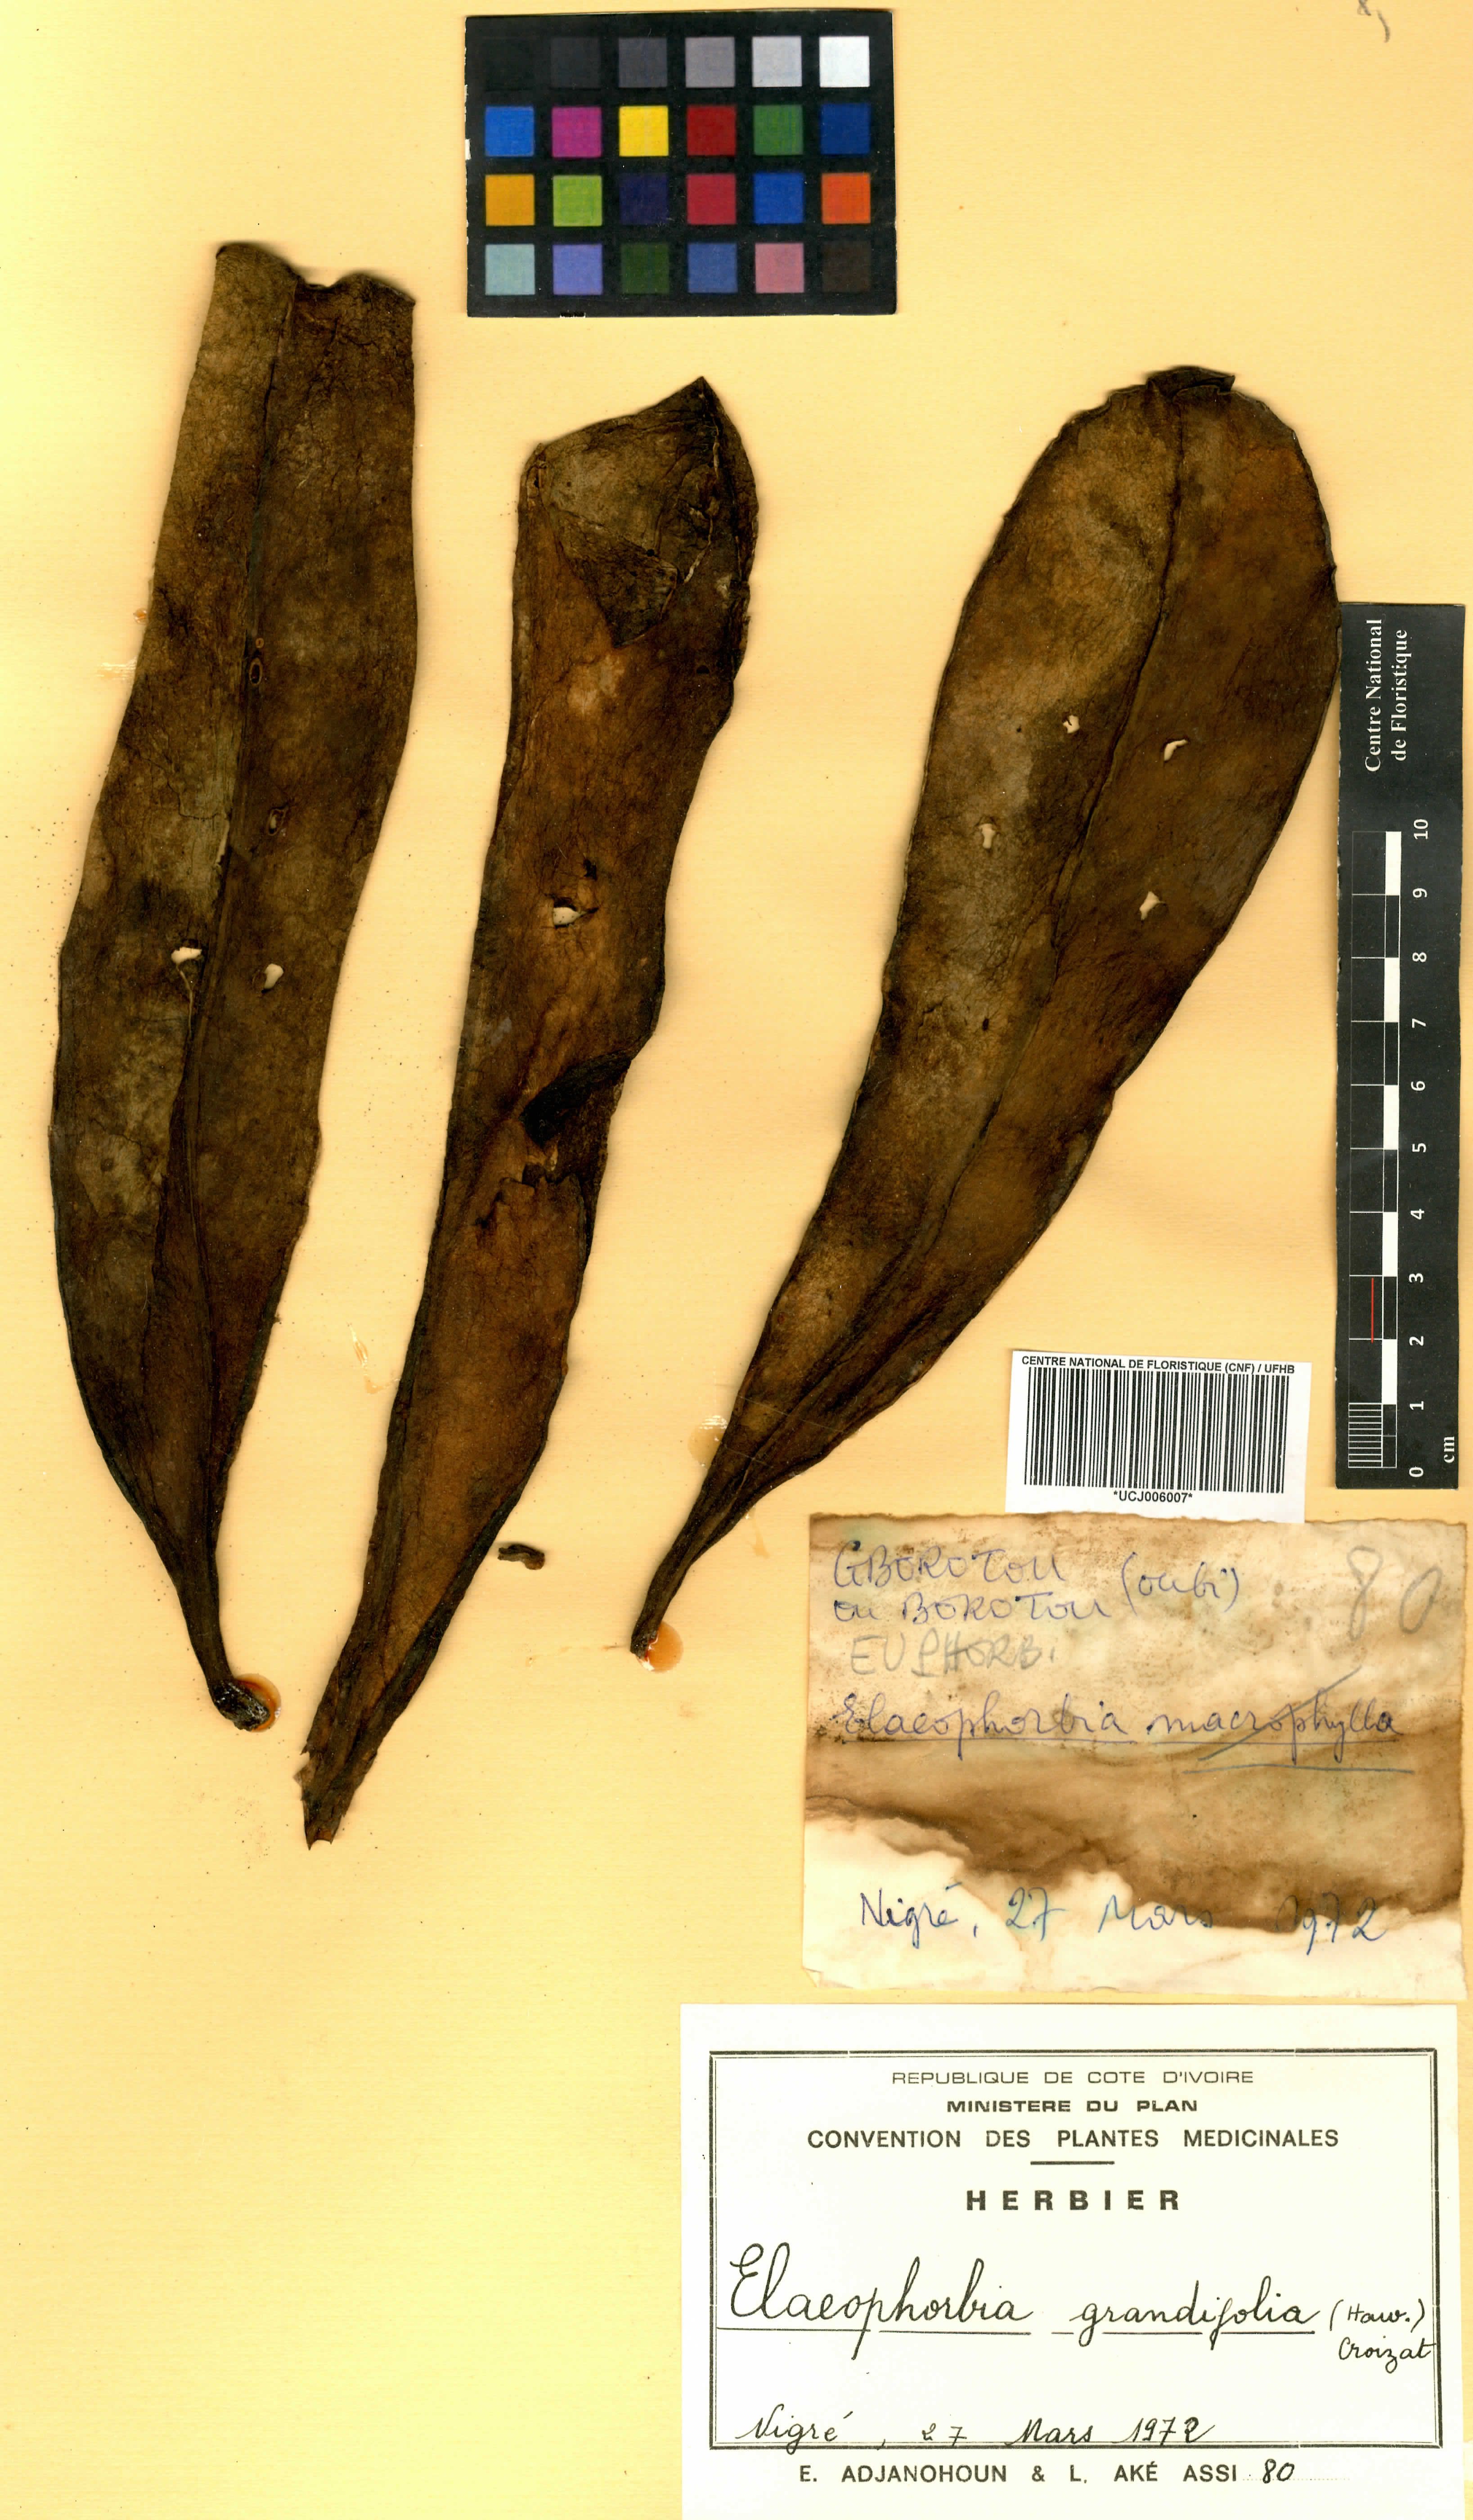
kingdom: Plantae
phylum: Tracheophyta
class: Magnoliopsida
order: Malpighiales
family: Euphorbiaceae
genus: Euphorbia
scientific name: Euphorbia grandifolia
